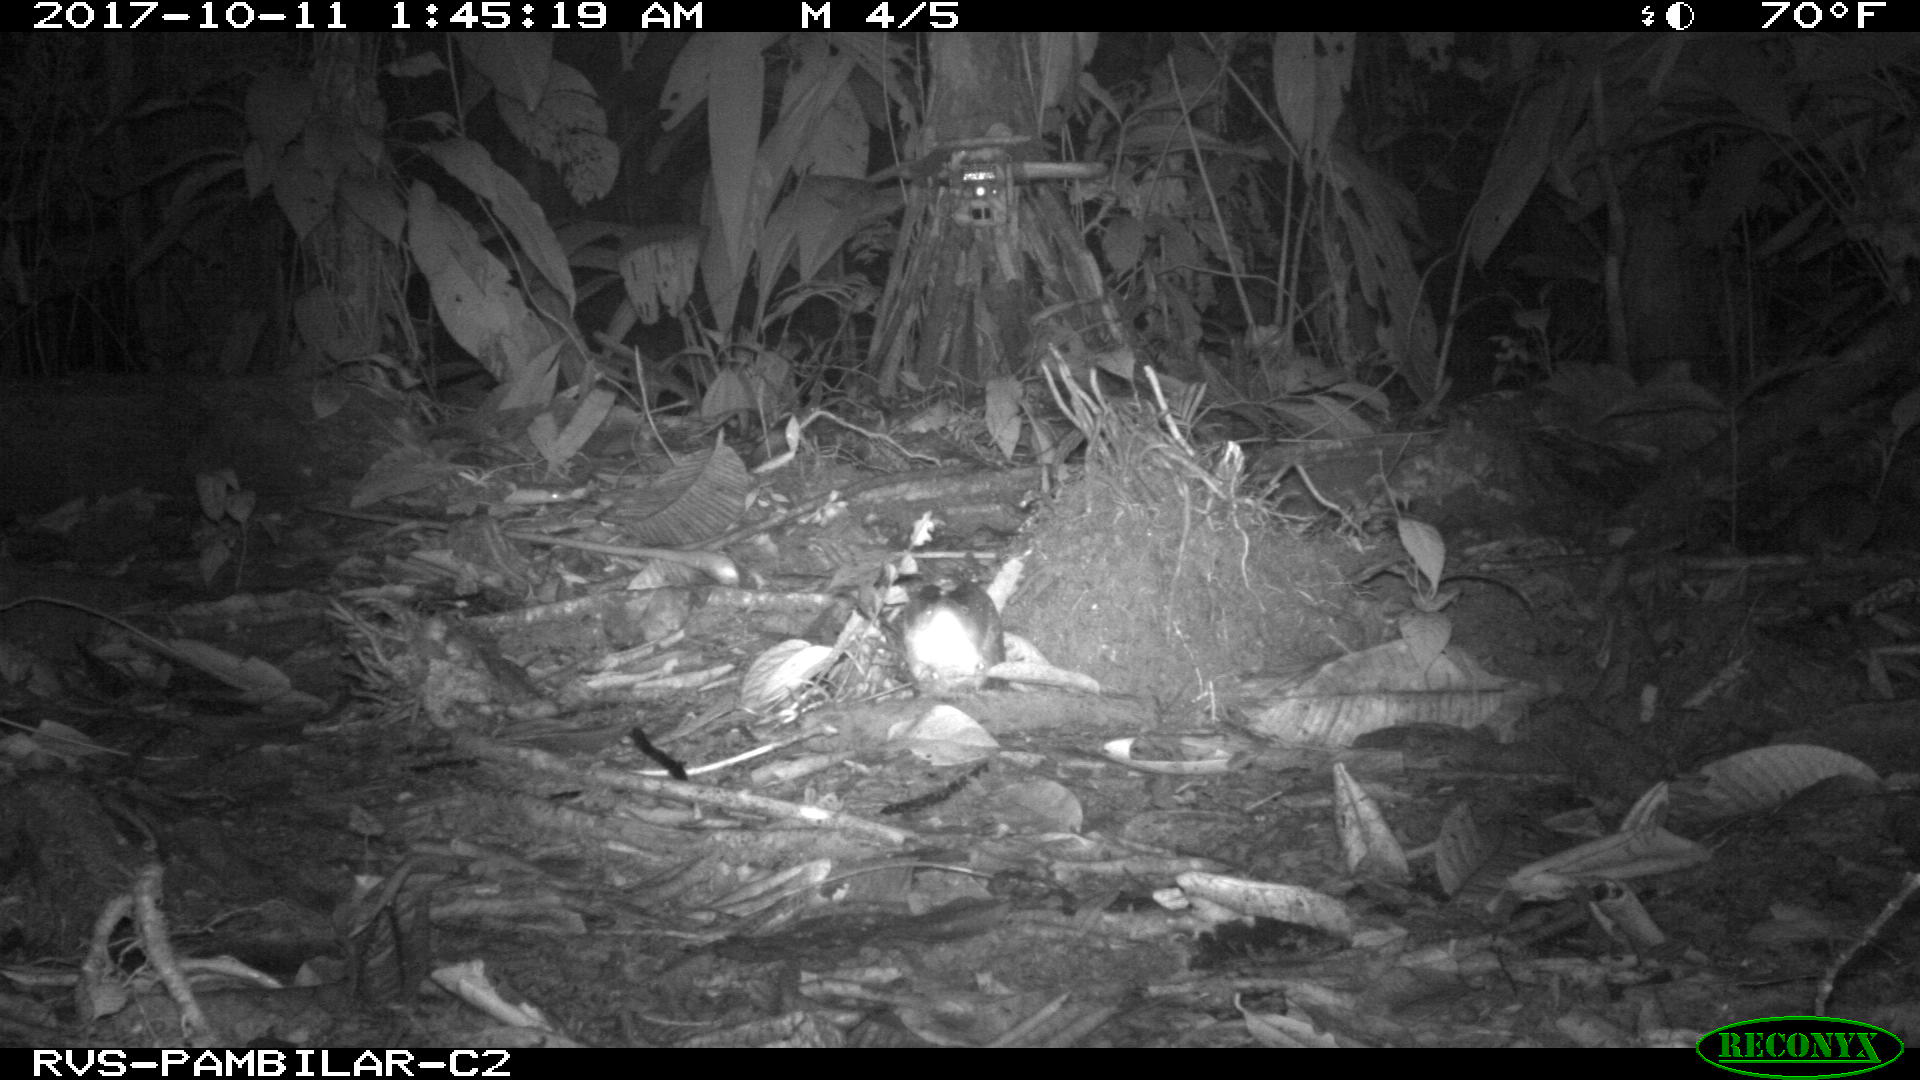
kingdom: Animalia
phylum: Chordata
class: Mammalia
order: Rodentia
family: Echimyidae
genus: Proechimys
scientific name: Proechimys
